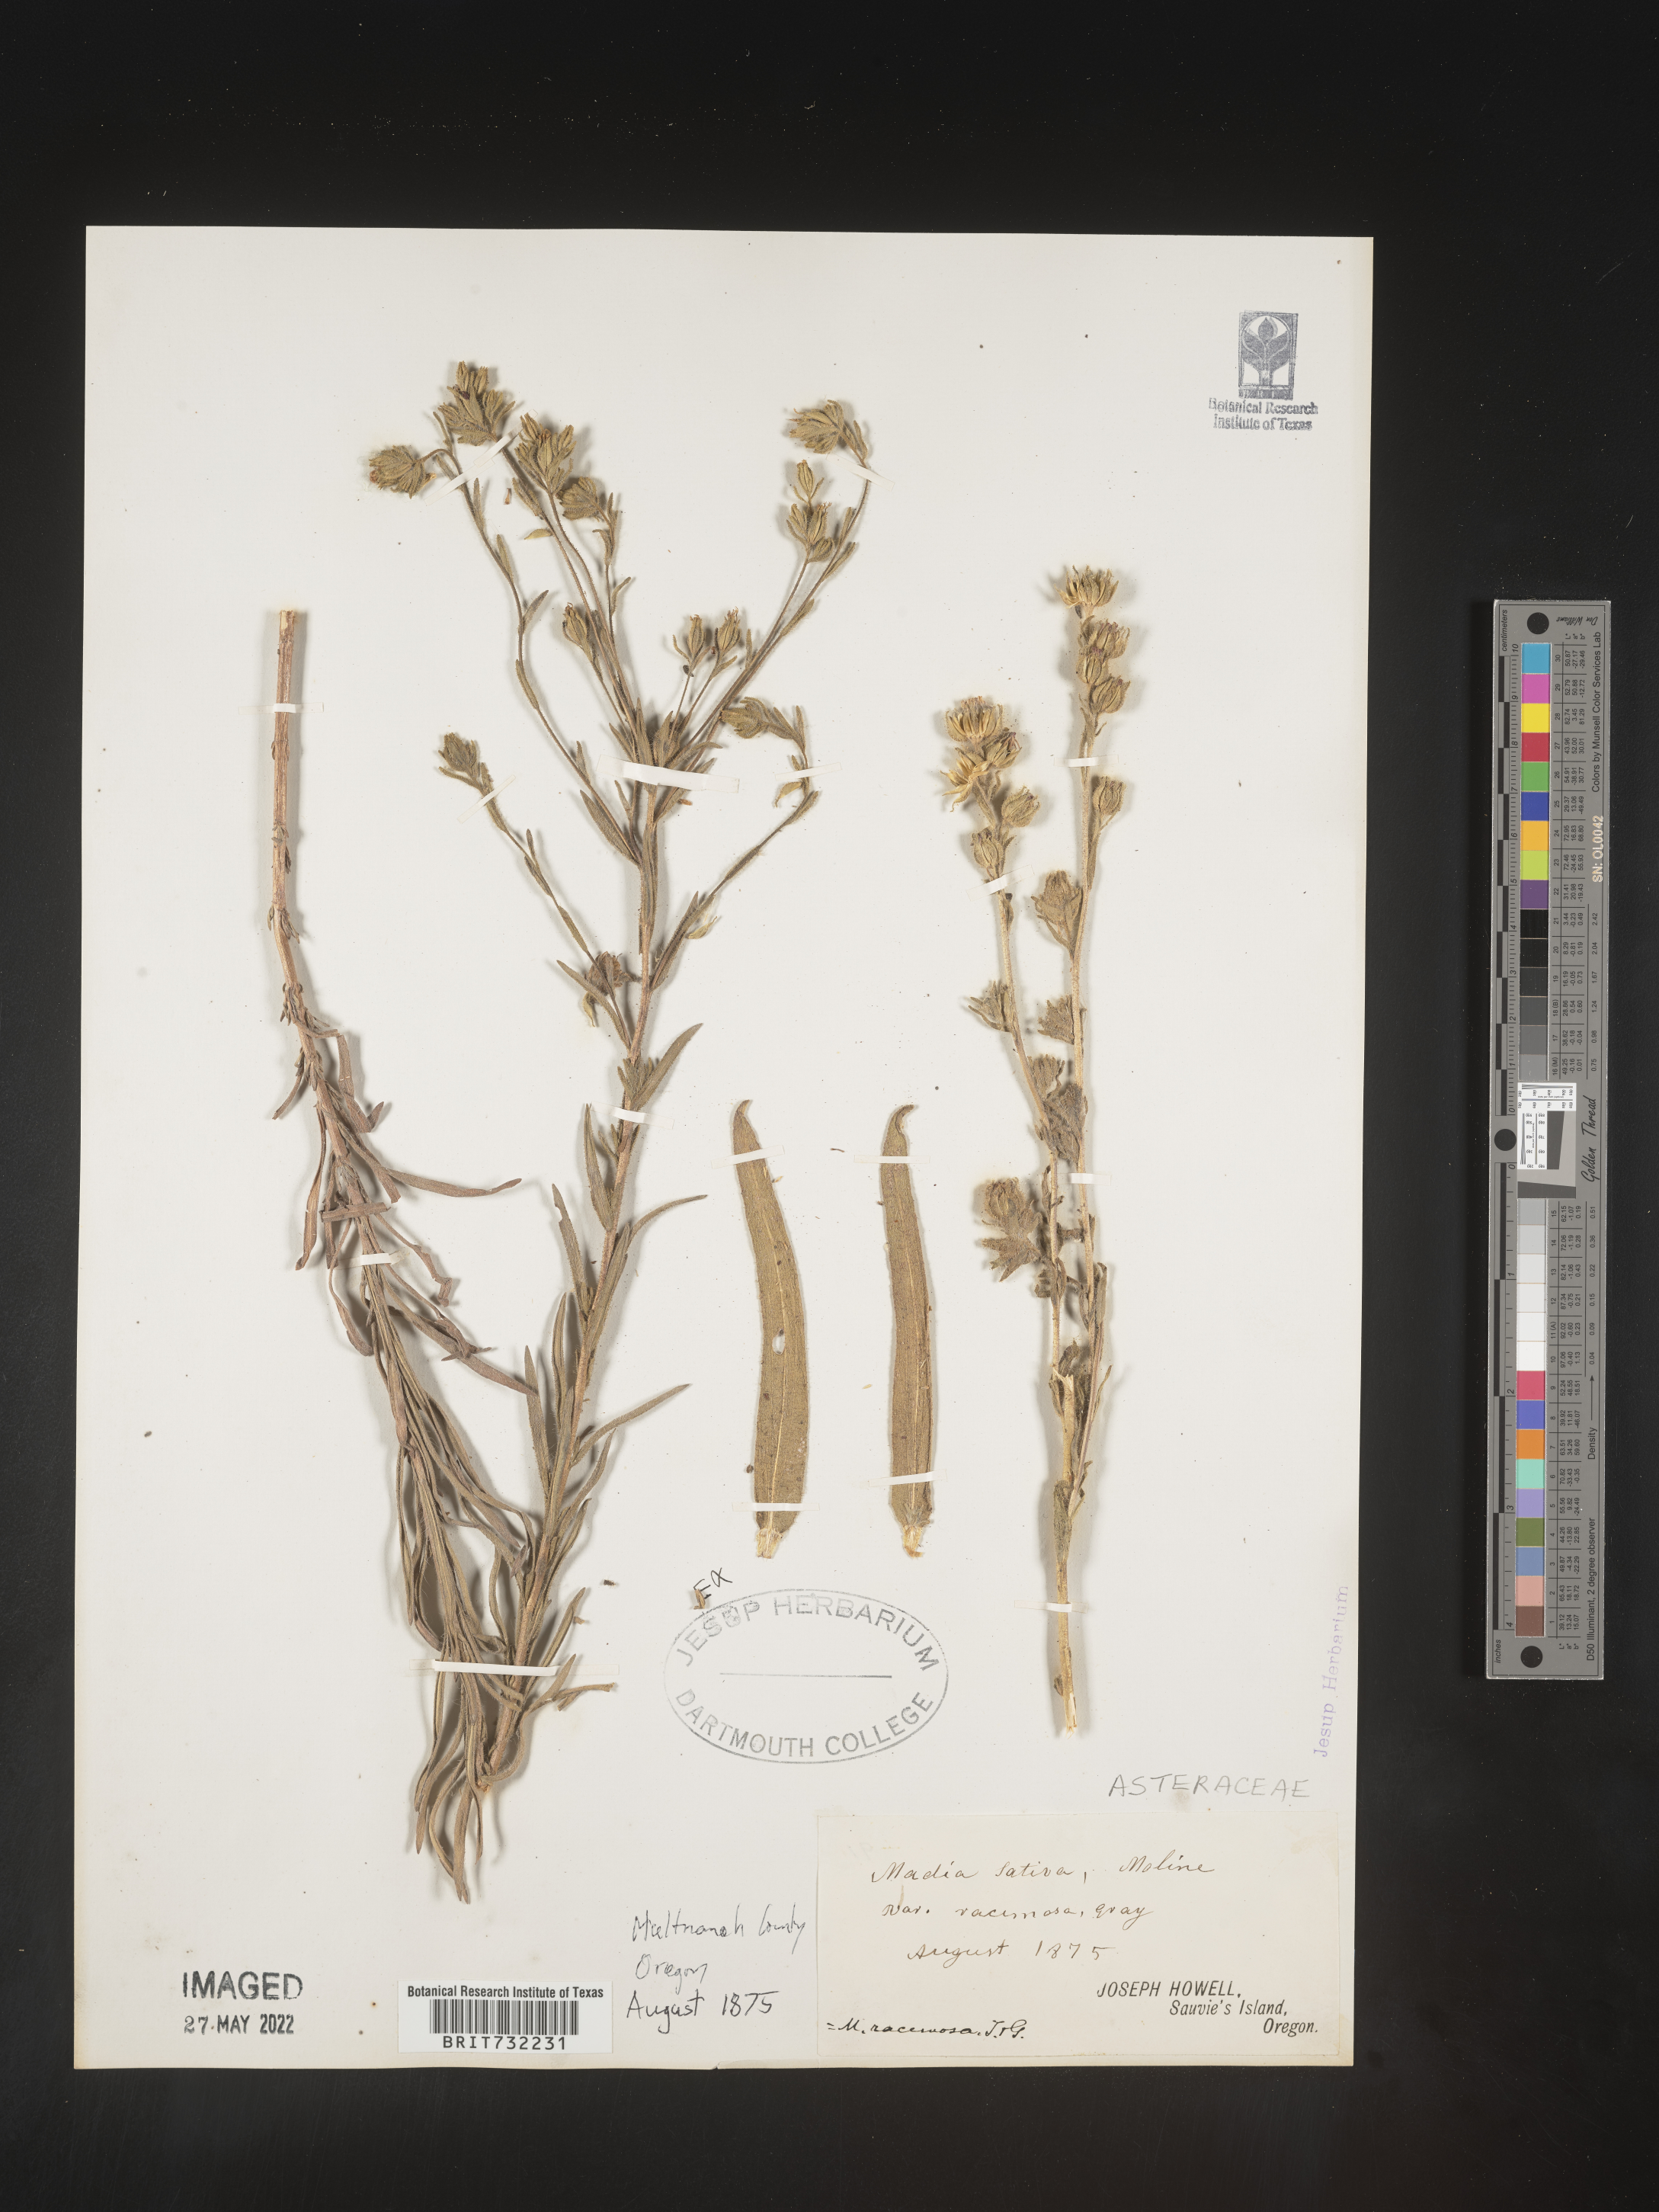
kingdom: Plantae
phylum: Tracheophyta
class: Magnoliopsida
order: Asterales
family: Asteraceae
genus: Madia
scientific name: Madia
